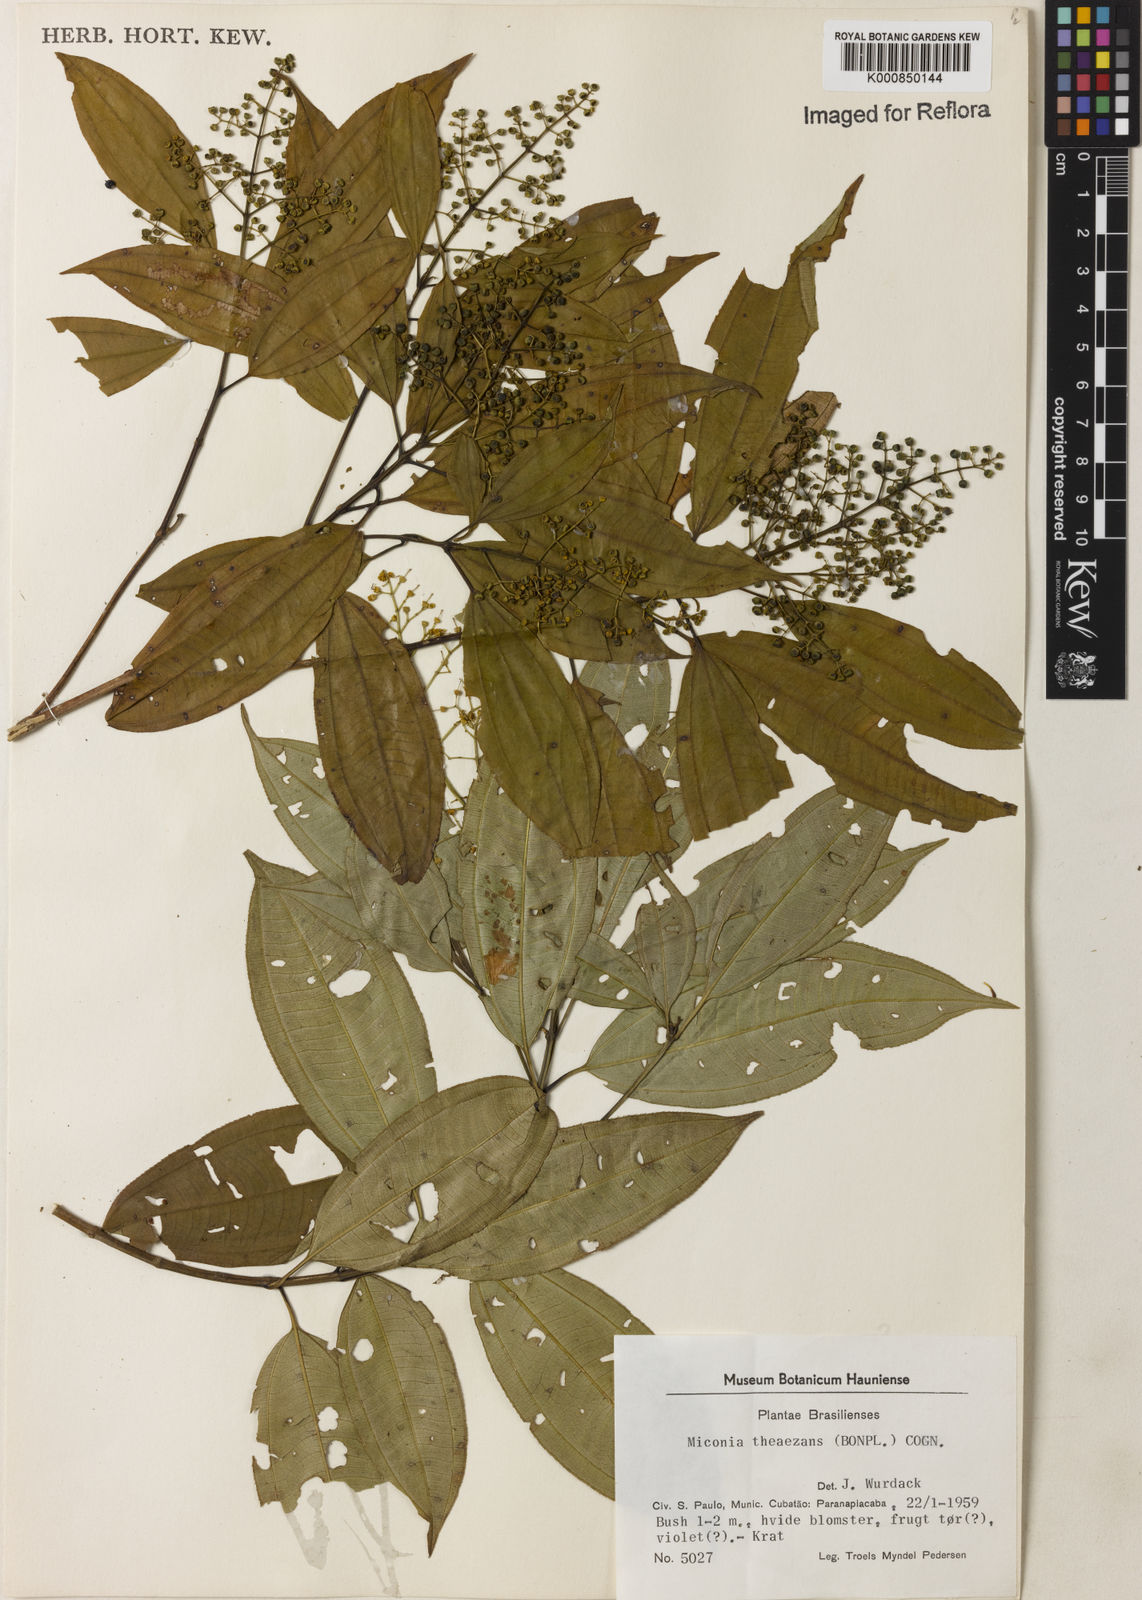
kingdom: Plantae
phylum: Tracheophyta
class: Magnoliopsida
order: Myrtales
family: Melastomataceae
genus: Miconia
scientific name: Miconia
